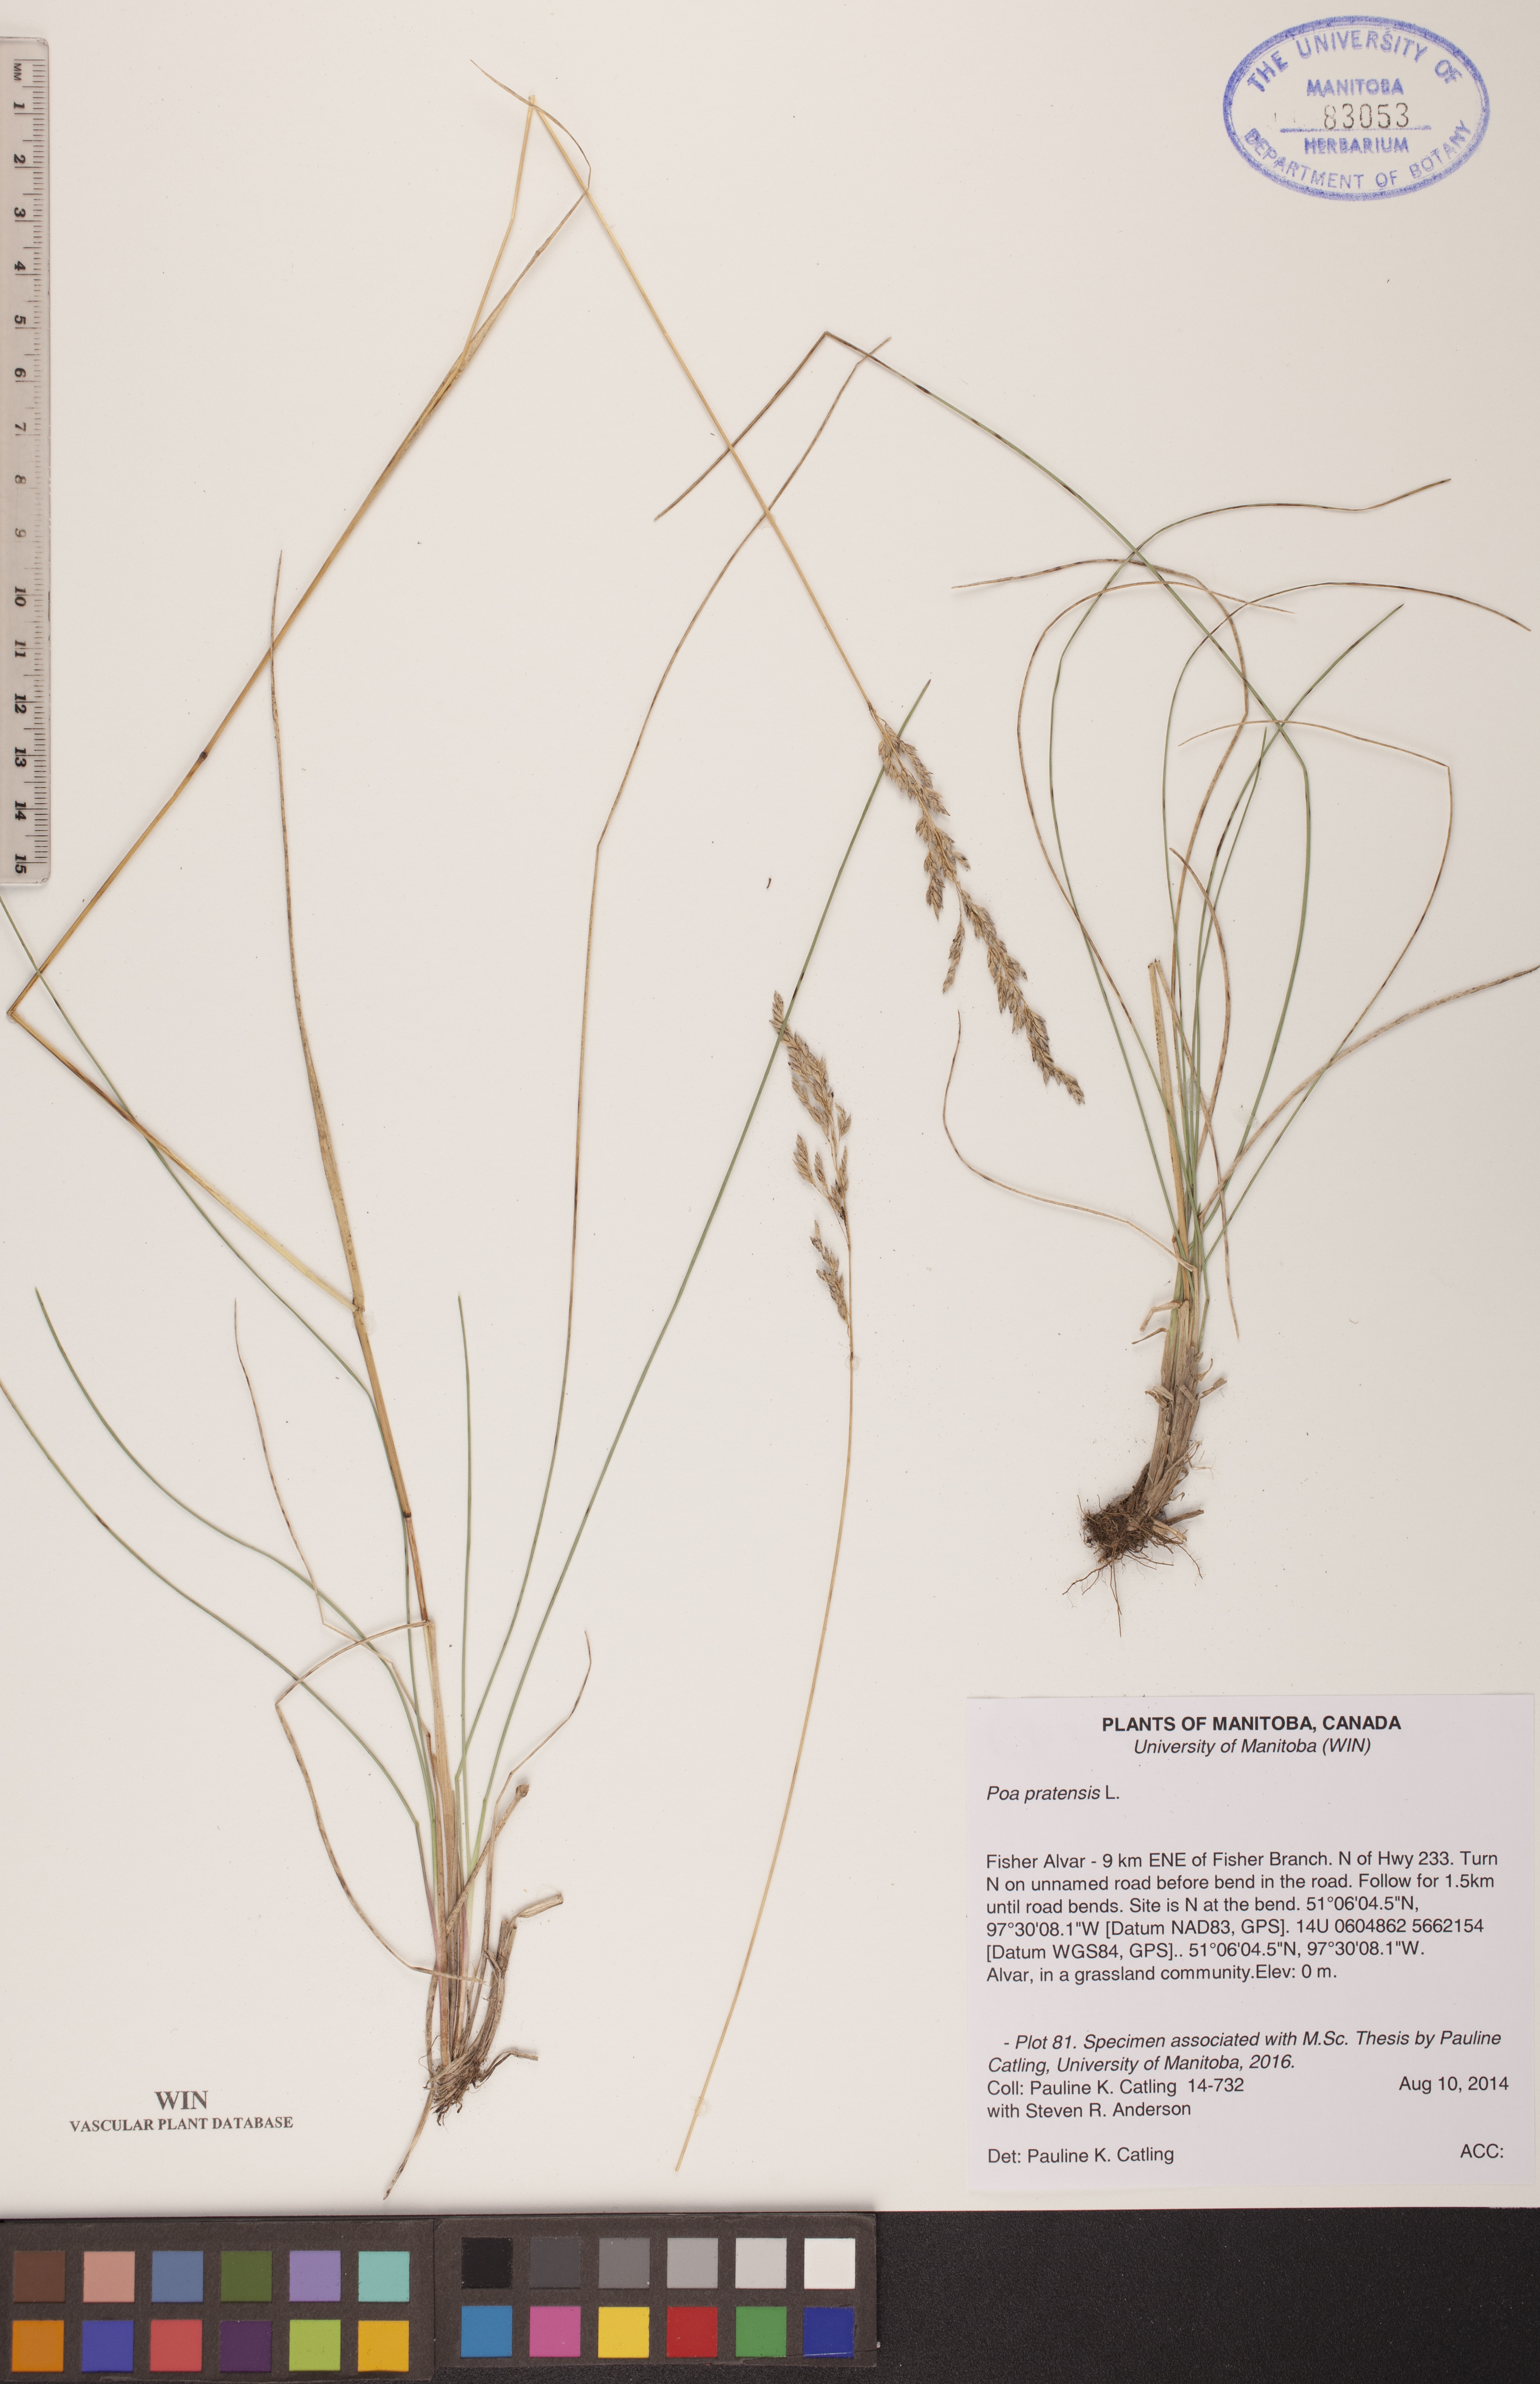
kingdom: Plantae
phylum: Tracheophyta
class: Liliopsida
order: Poales
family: Poaceae
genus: Poa
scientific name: Poa pratensis
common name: Kentucky bluegrass
